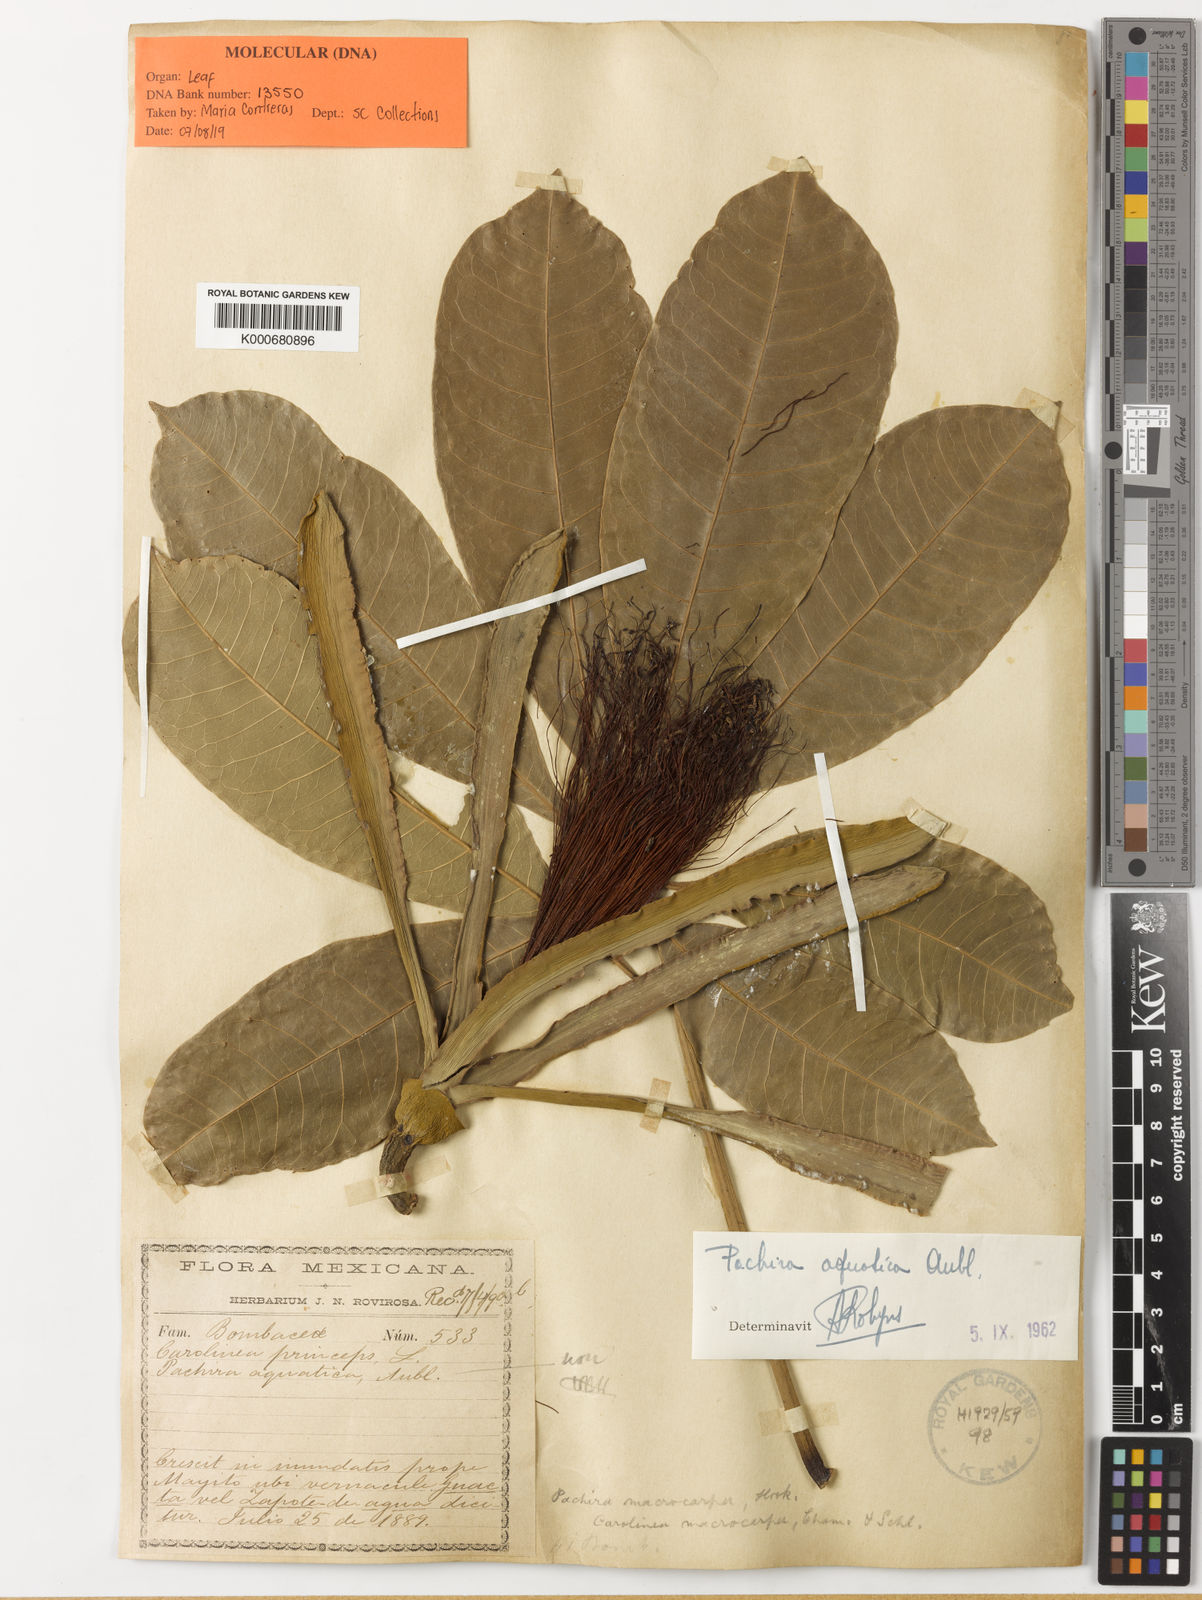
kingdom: Plantae
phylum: Tracheophyta
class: Magnoliopsida
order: Malvales
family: Malvaceae
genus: Pachira
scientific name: Pachira aquatica
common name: Provision-tree
